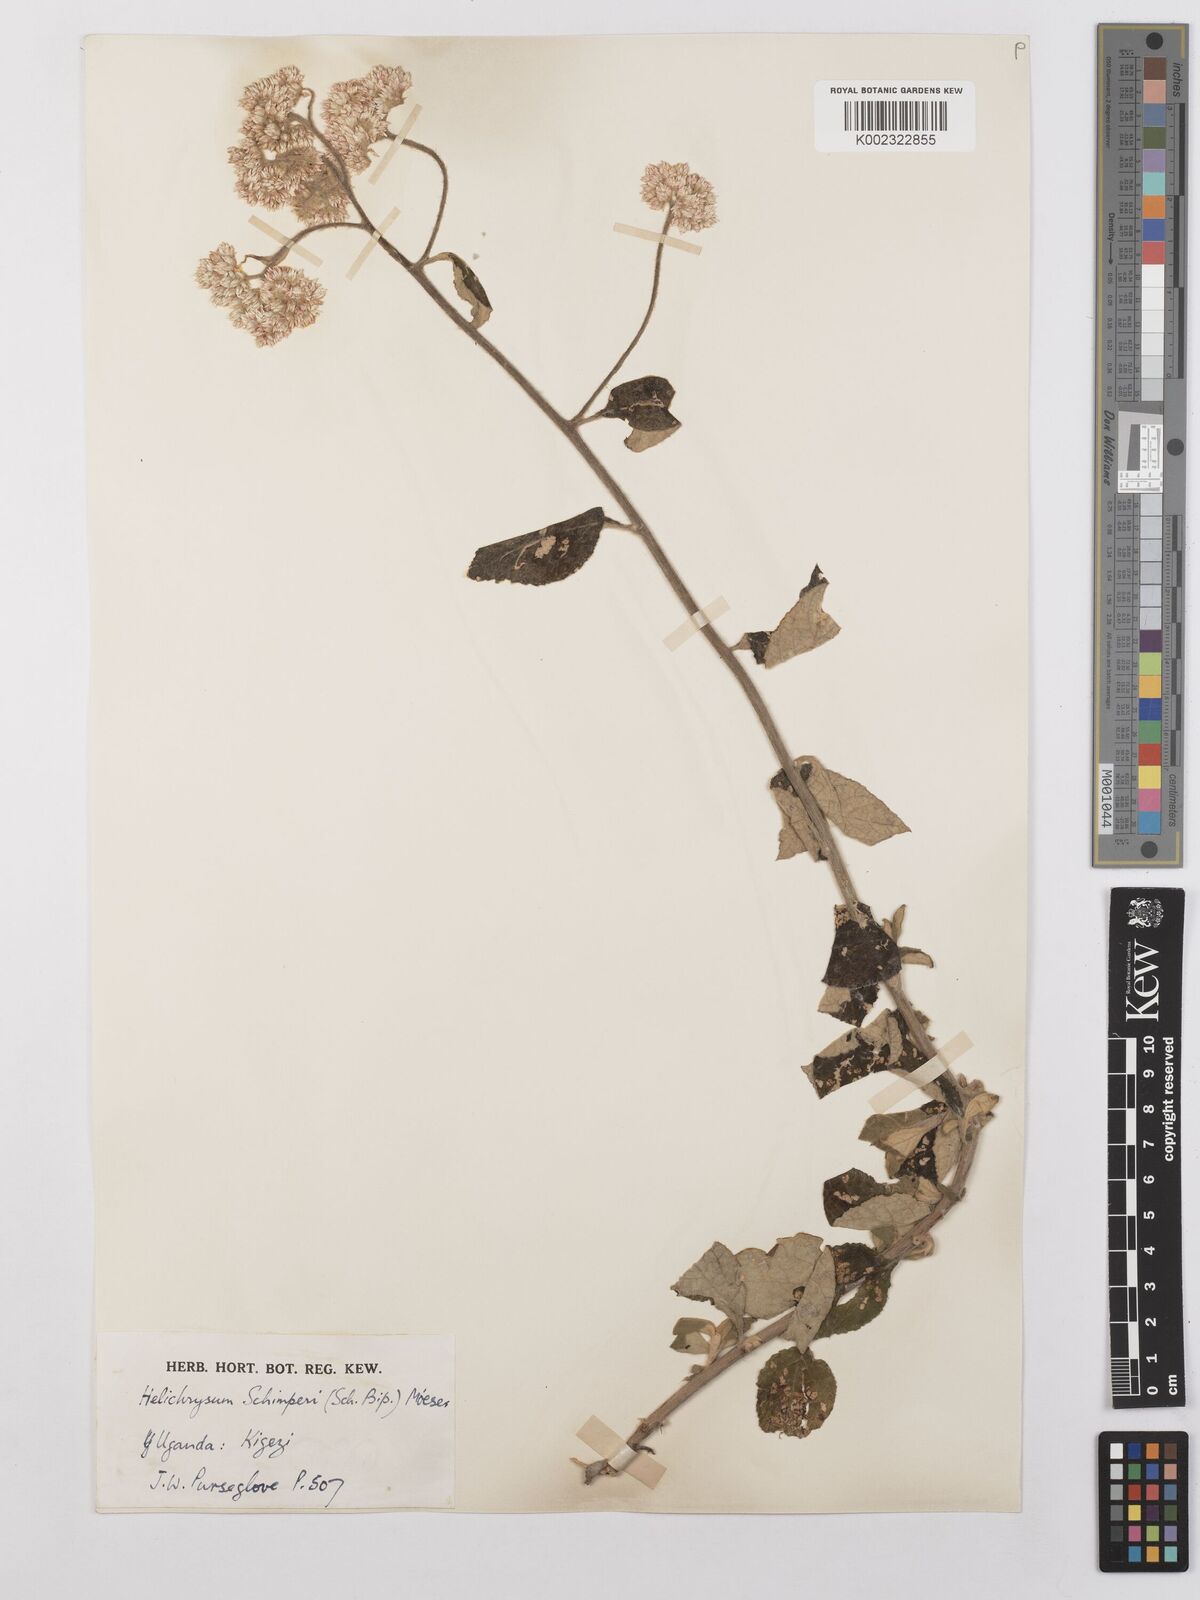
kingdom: Plantae
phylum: Tracheophyta
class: Magnoliopsida
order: Asterales
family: Asteraceae
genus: Helichrysum
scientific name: Helichrysum schimperi
